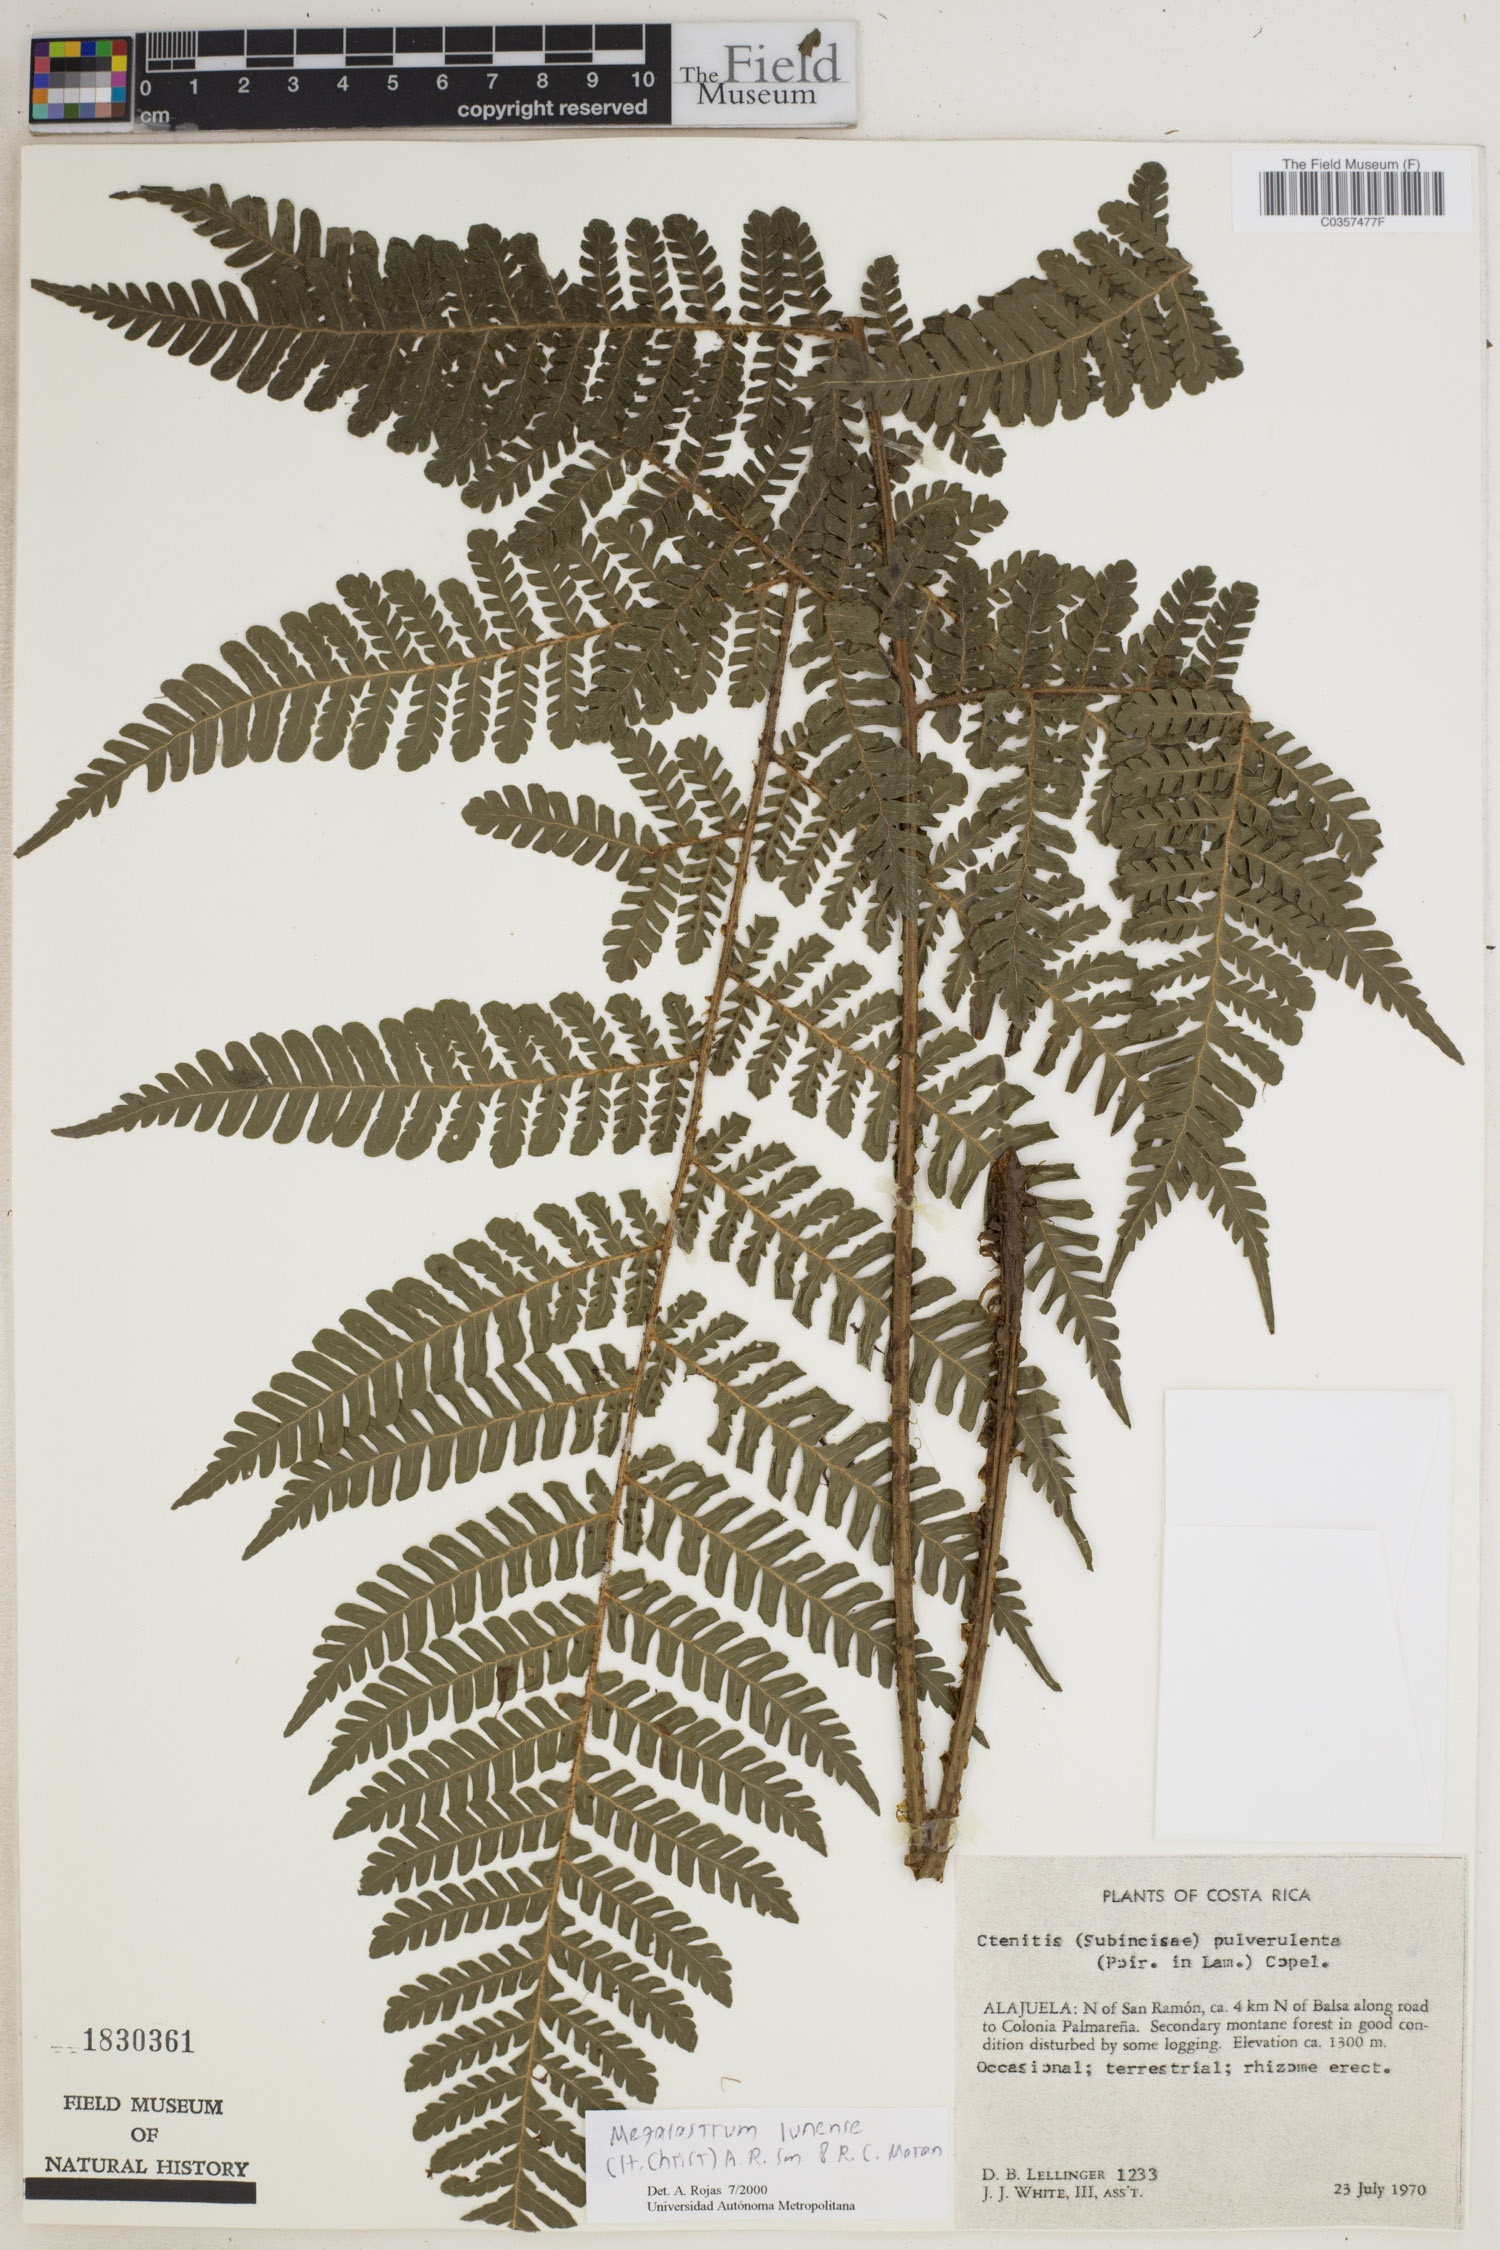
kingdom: Plantae
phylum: Tracheophyta
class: Polypodiopsida
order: Polypodiales
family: Dryopteridaceae
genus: Megalastrum
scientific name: Megalastrum lunense
